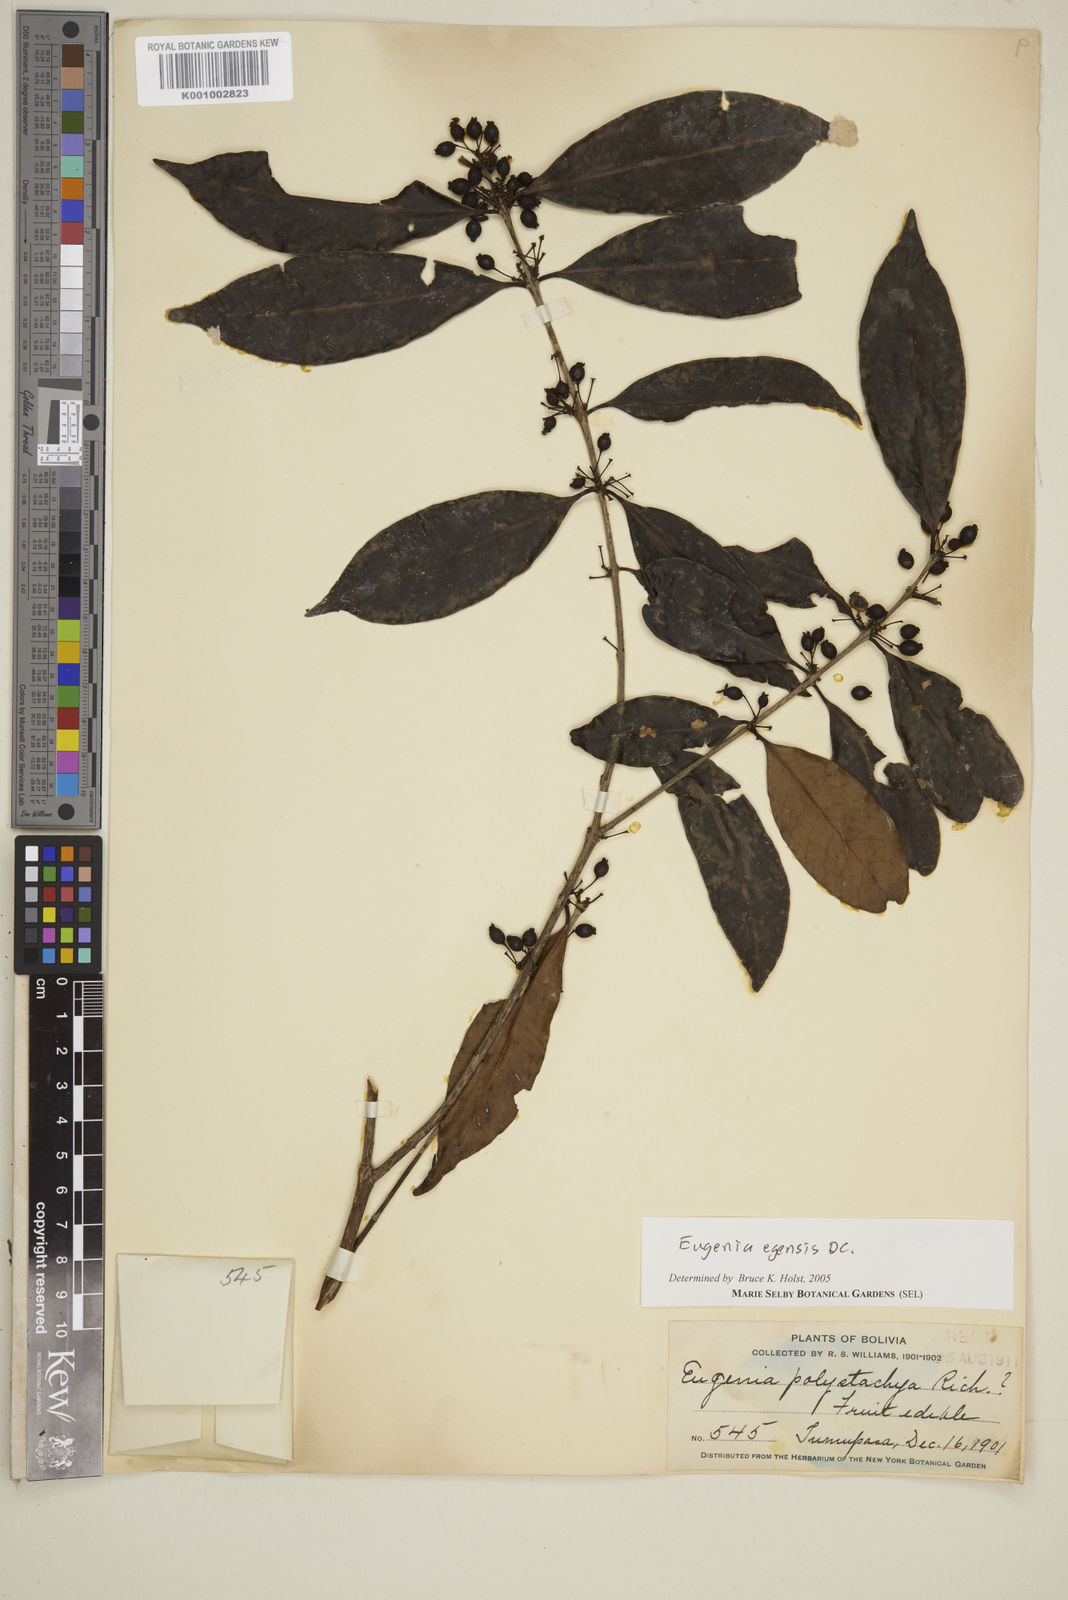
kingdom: Plantae
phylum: Tracheophyta
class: Magnoliopsida
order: Myrtales
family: Myrtaceae
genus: Eugenia
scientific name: Eugenia egensis
